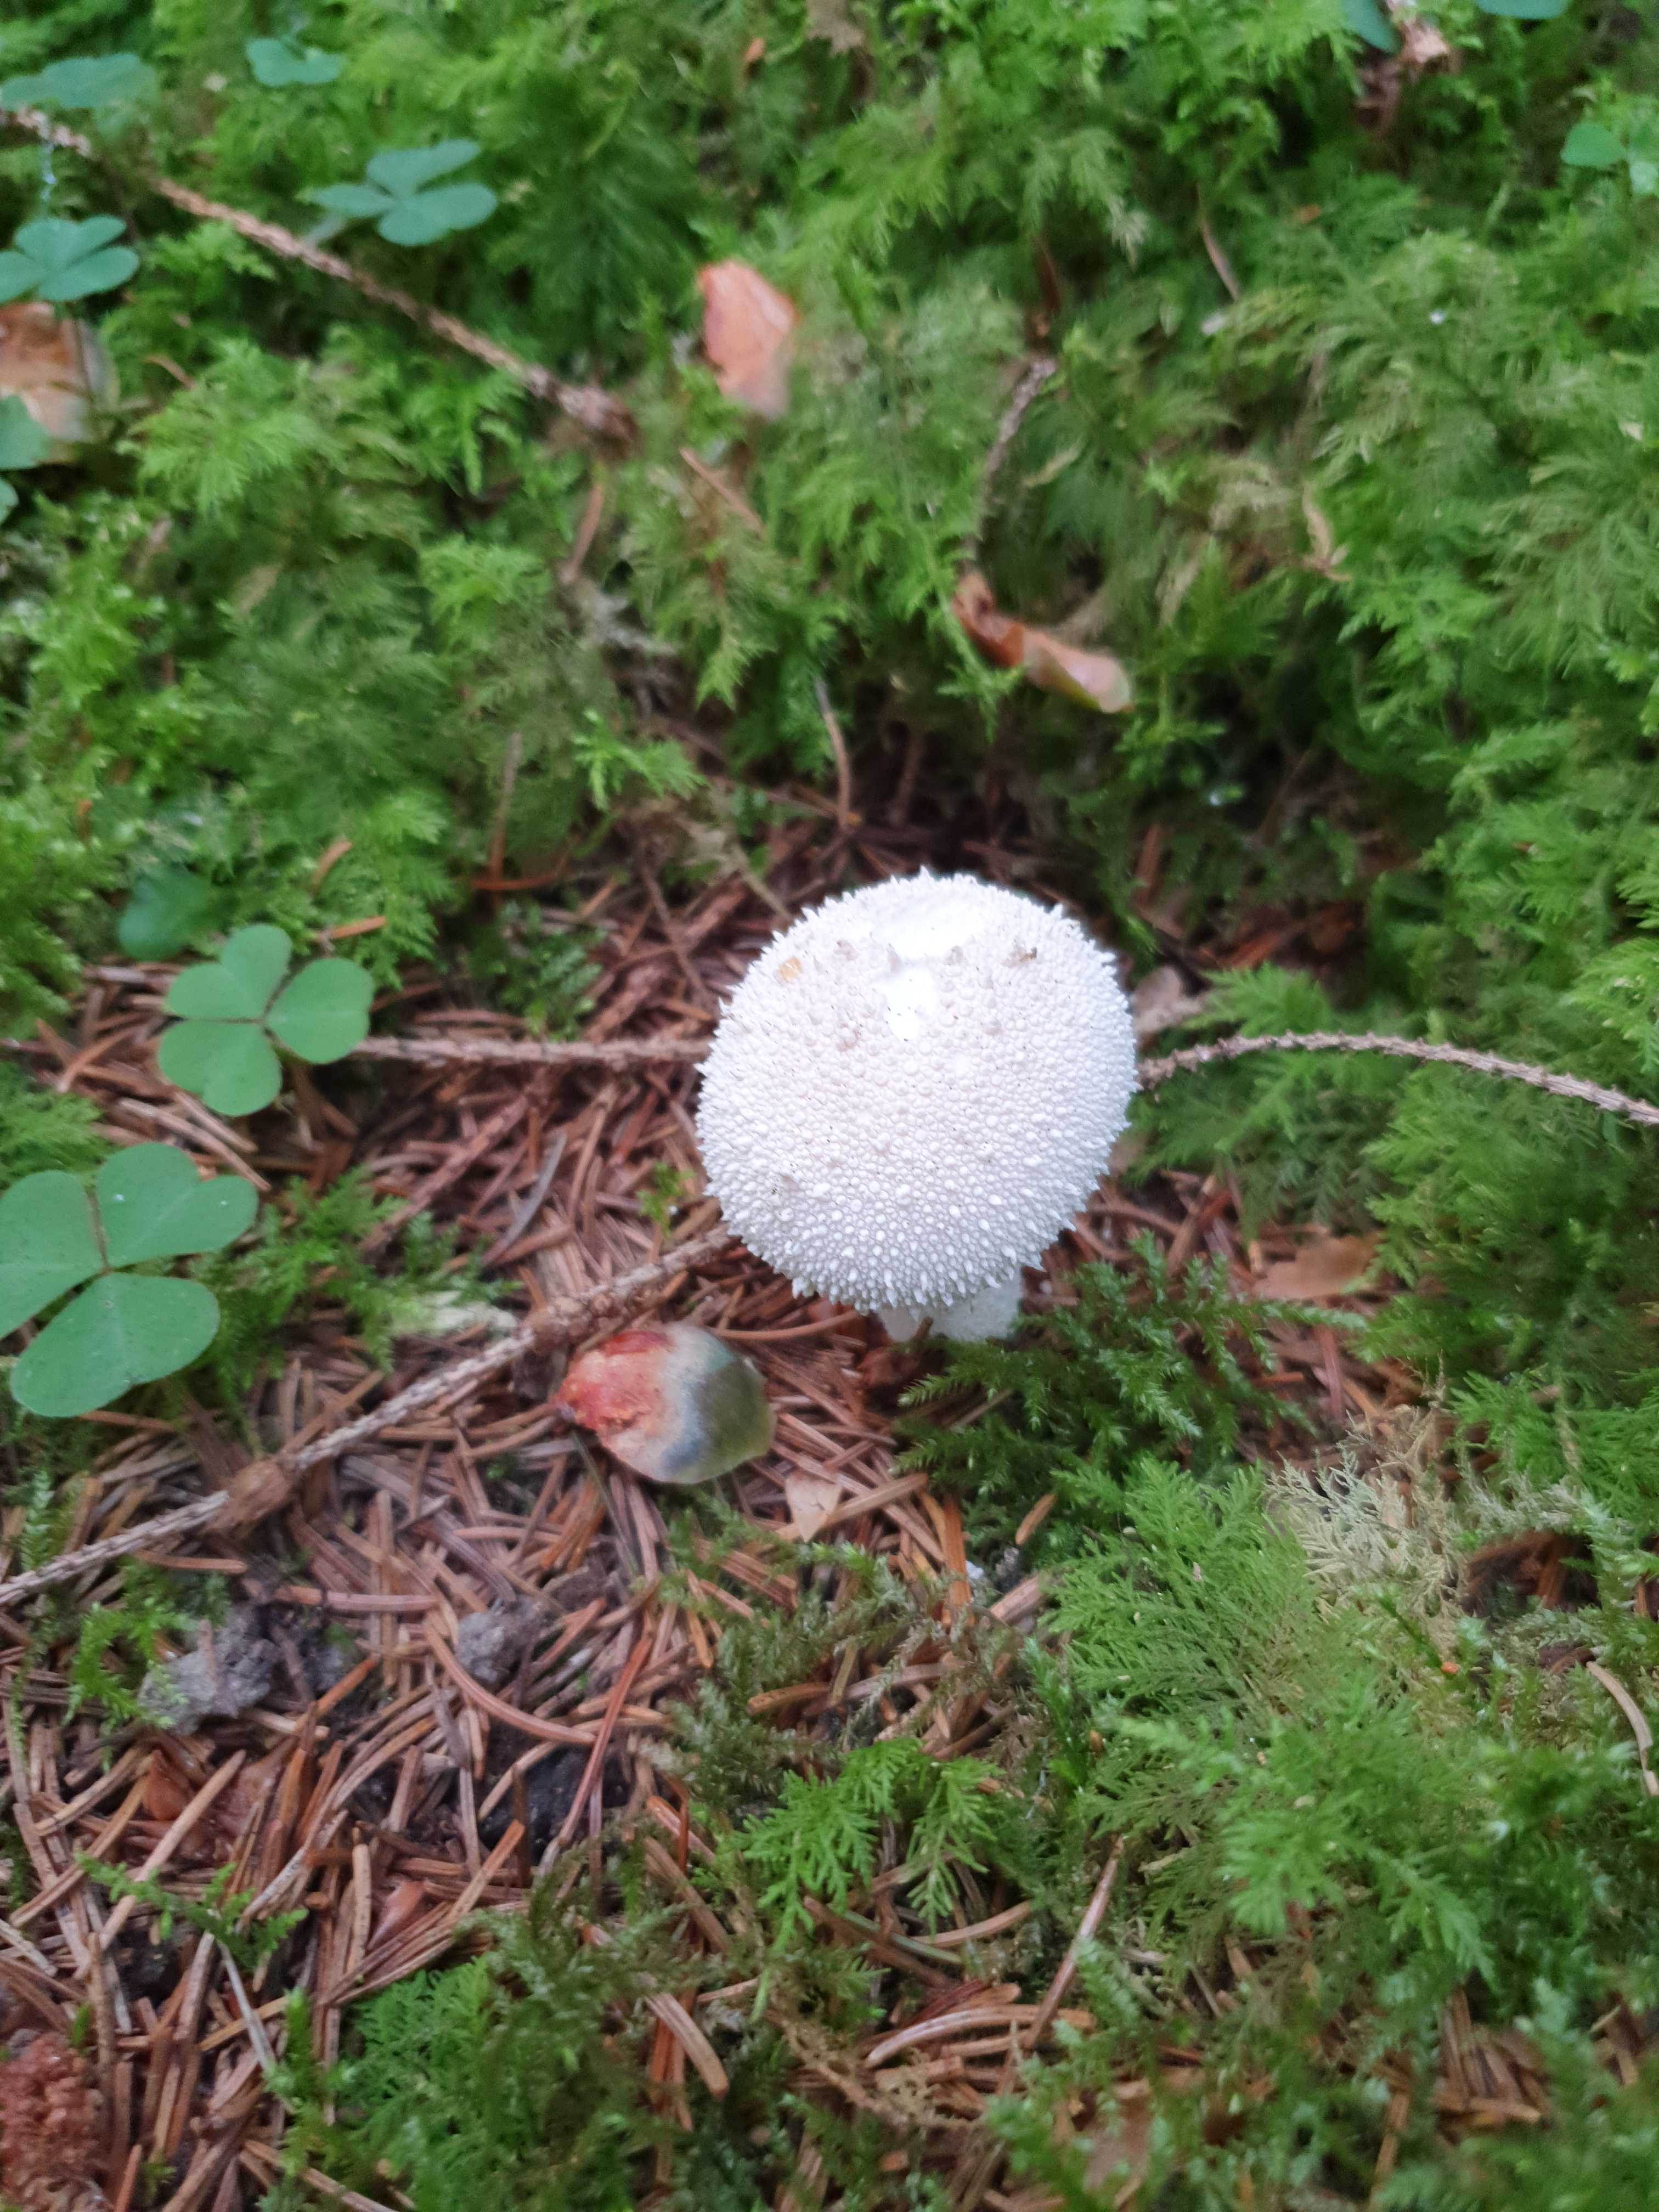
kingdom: Fungi
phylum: Basidiomycota
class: Agaricomycetes
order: Agaricales
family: Lycoperdaceae
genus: Lycoperdon
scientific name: Lycoperdon perlatum
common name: krystal-støvbold
